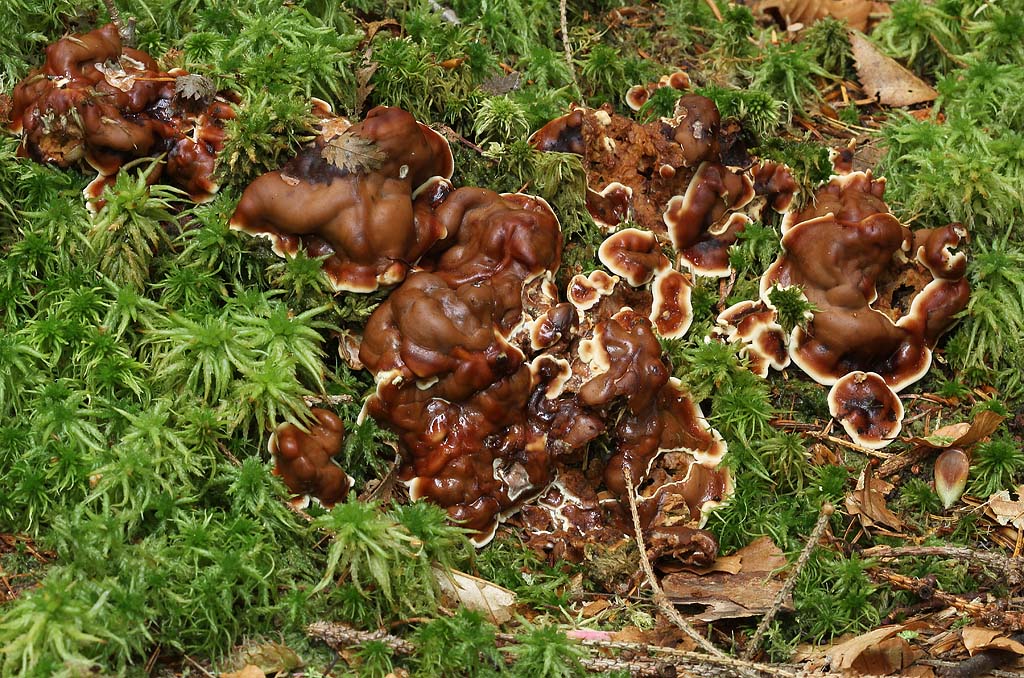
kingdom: Fungi
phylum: Ascomycota
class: Pezizomycetes
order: Pezizales
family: Rhizinaceae
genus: Rhizina
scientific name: Rhizina undulata
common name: rodmorkel
